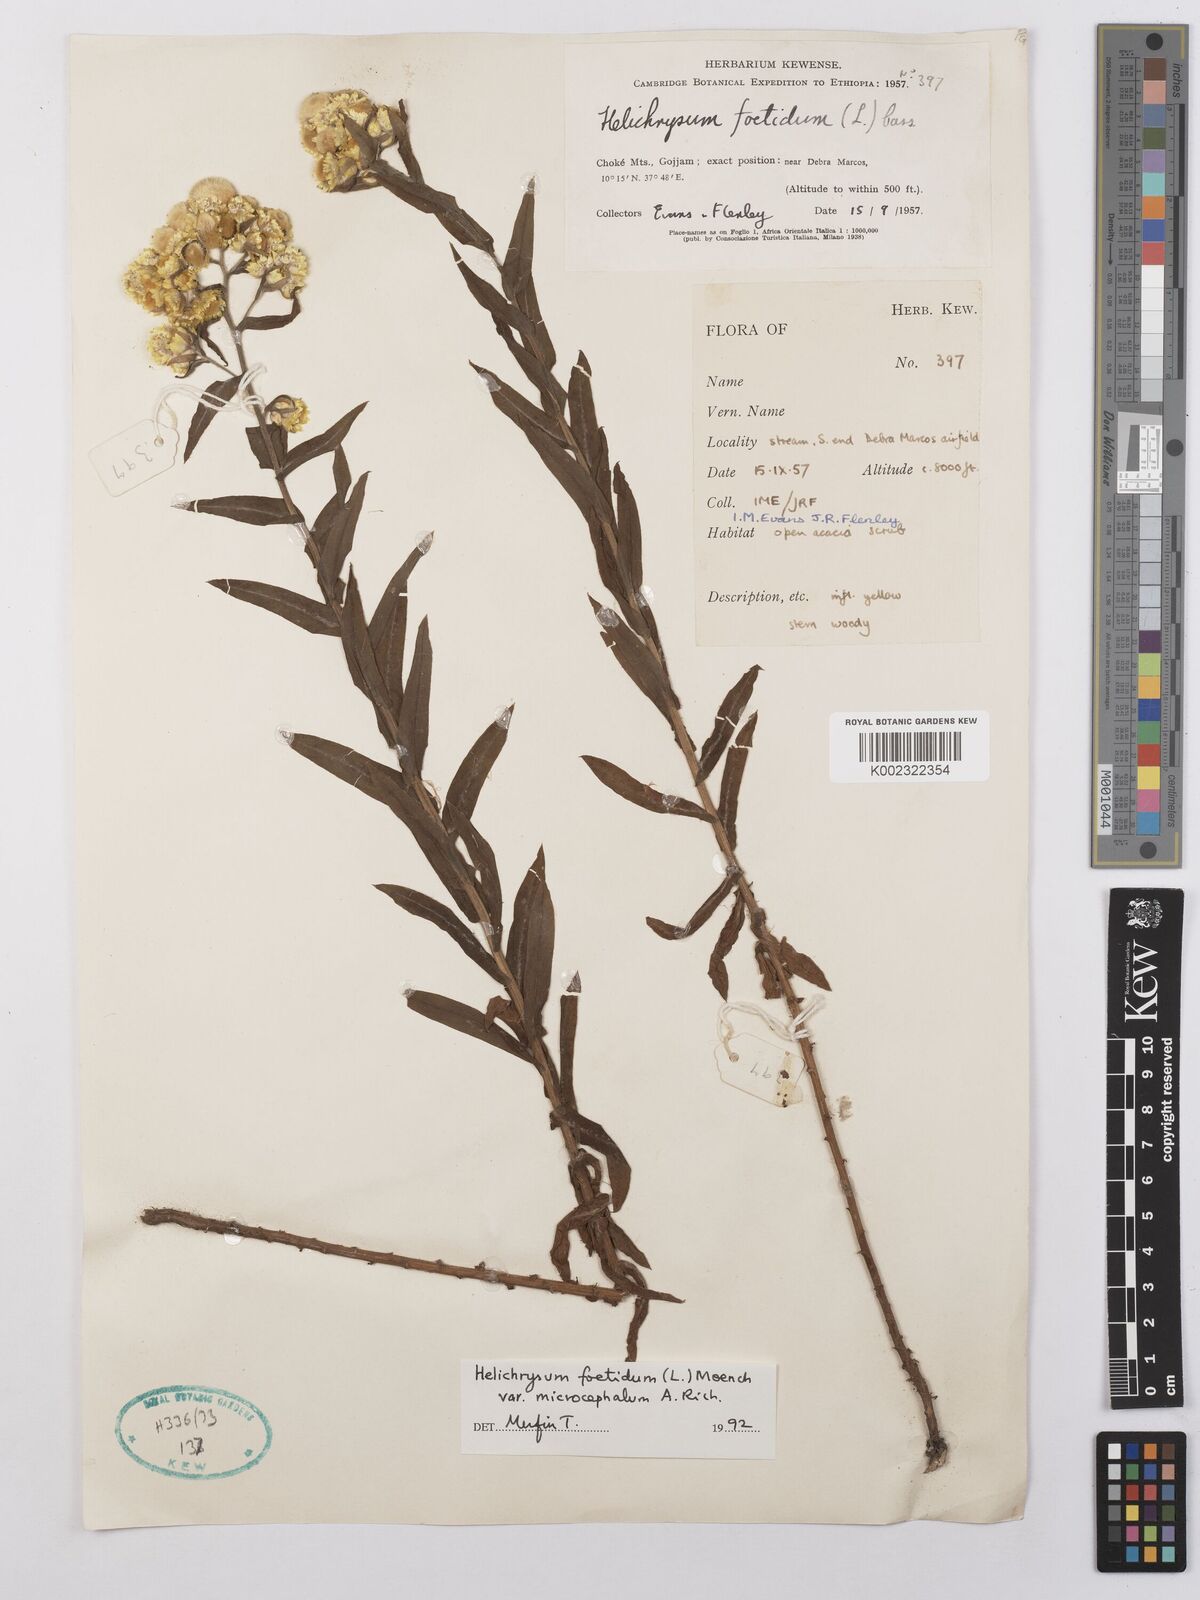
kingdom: Plantae
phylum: Tracheophyta
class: Magnoliopsida
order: Asterales
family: Asteraceae
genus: Helichrysum
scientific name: Helichrysum foetidum
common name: Stinking everlasting
